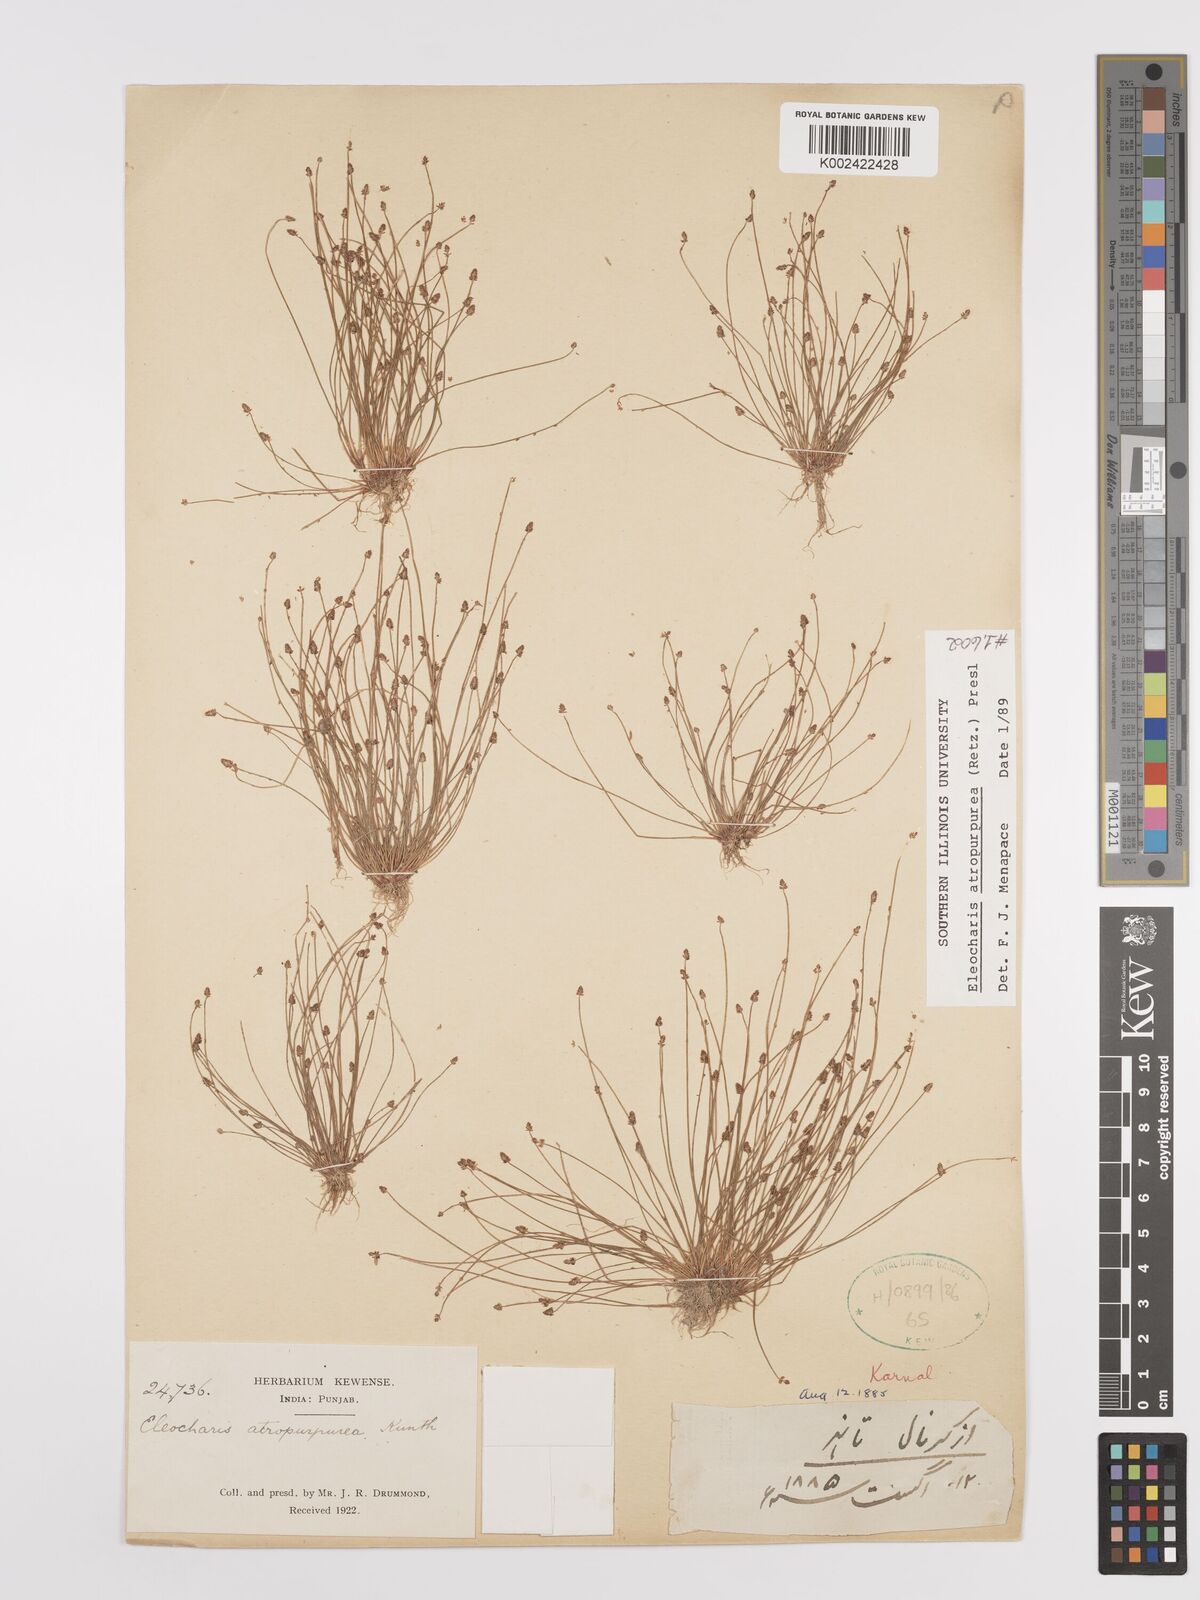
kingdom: Plantae
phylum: Tracheophyta
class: Liliopsida
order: Poales
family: Cyperaceae
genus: Eleocharis
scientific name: Eleocharis atropurpurea
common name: Purple spikerush
